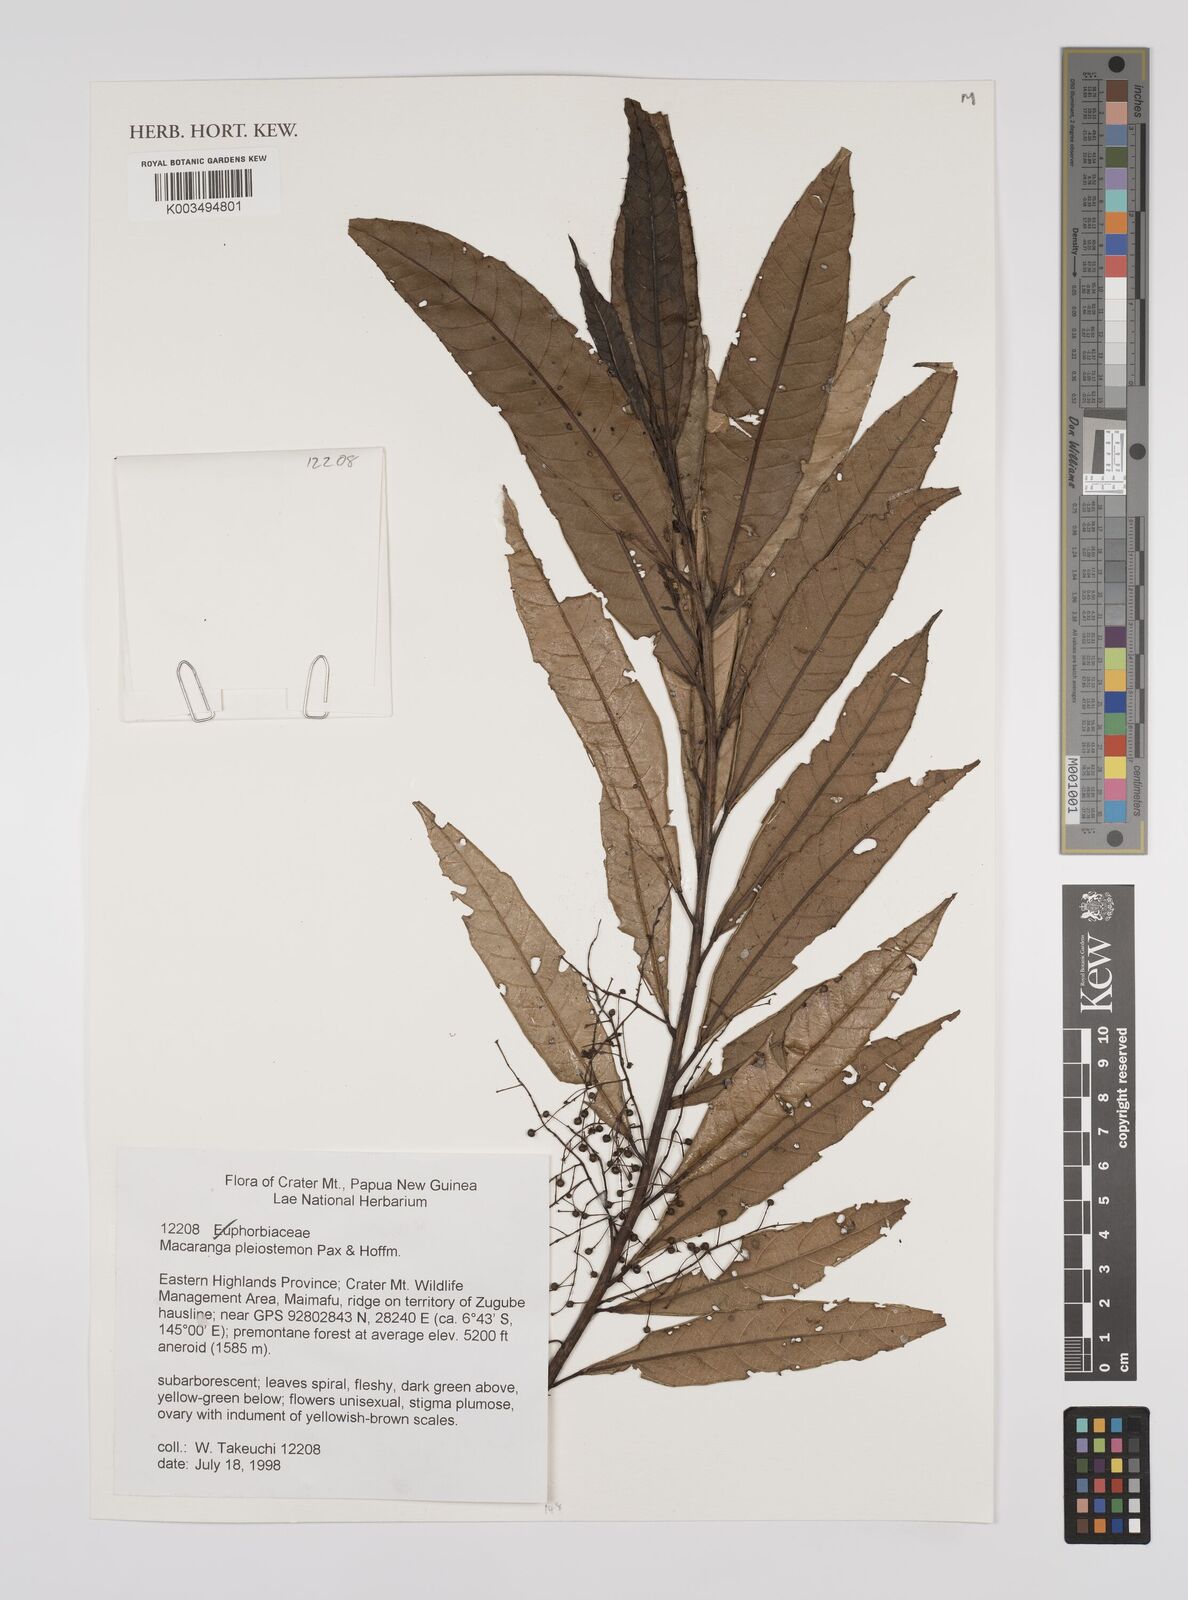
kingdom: Plantae
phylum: Tracheophyta
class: Magnoliopsida
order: Malpighiales
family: Euphorbiaceae
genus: Macaranga
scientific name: Macaranga pleiostemon
